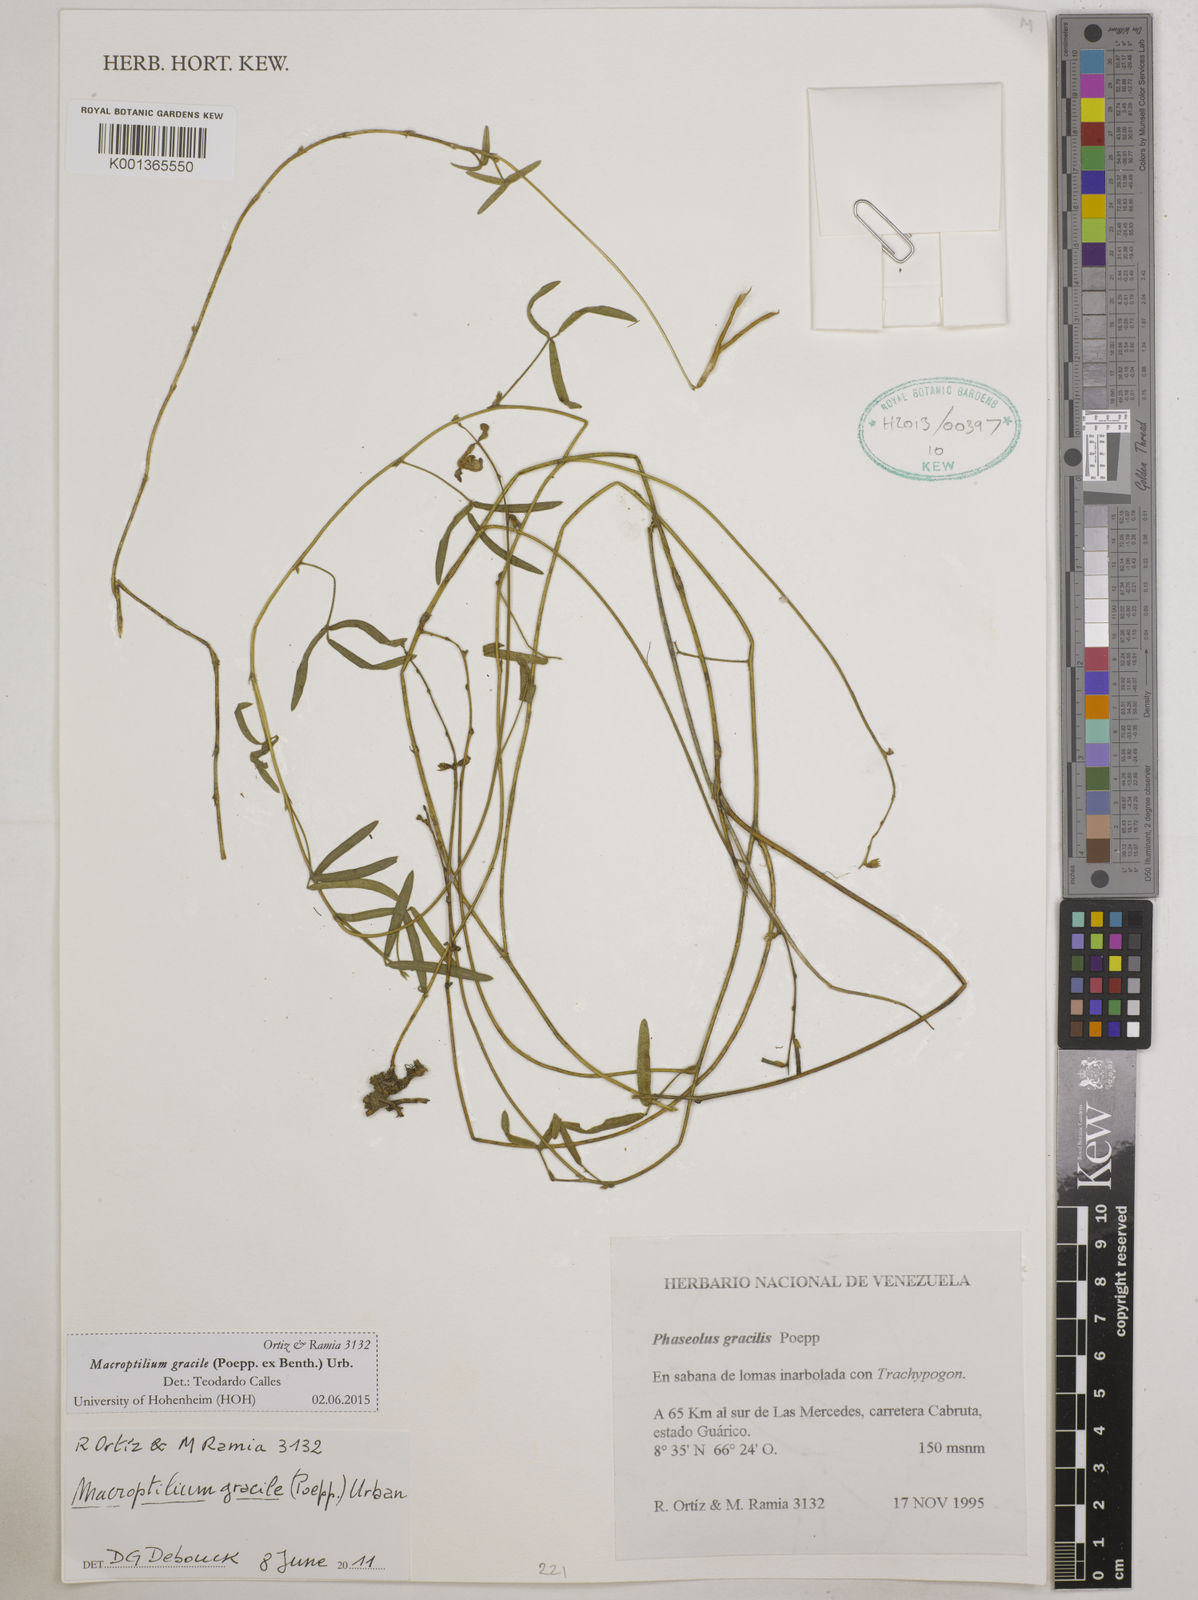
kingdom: Plantae
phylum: Tracheophyta
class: Magnoliopsida
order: Fabales
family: Fabaceae
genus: Macroptilium
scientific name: Macroptilium gracile
